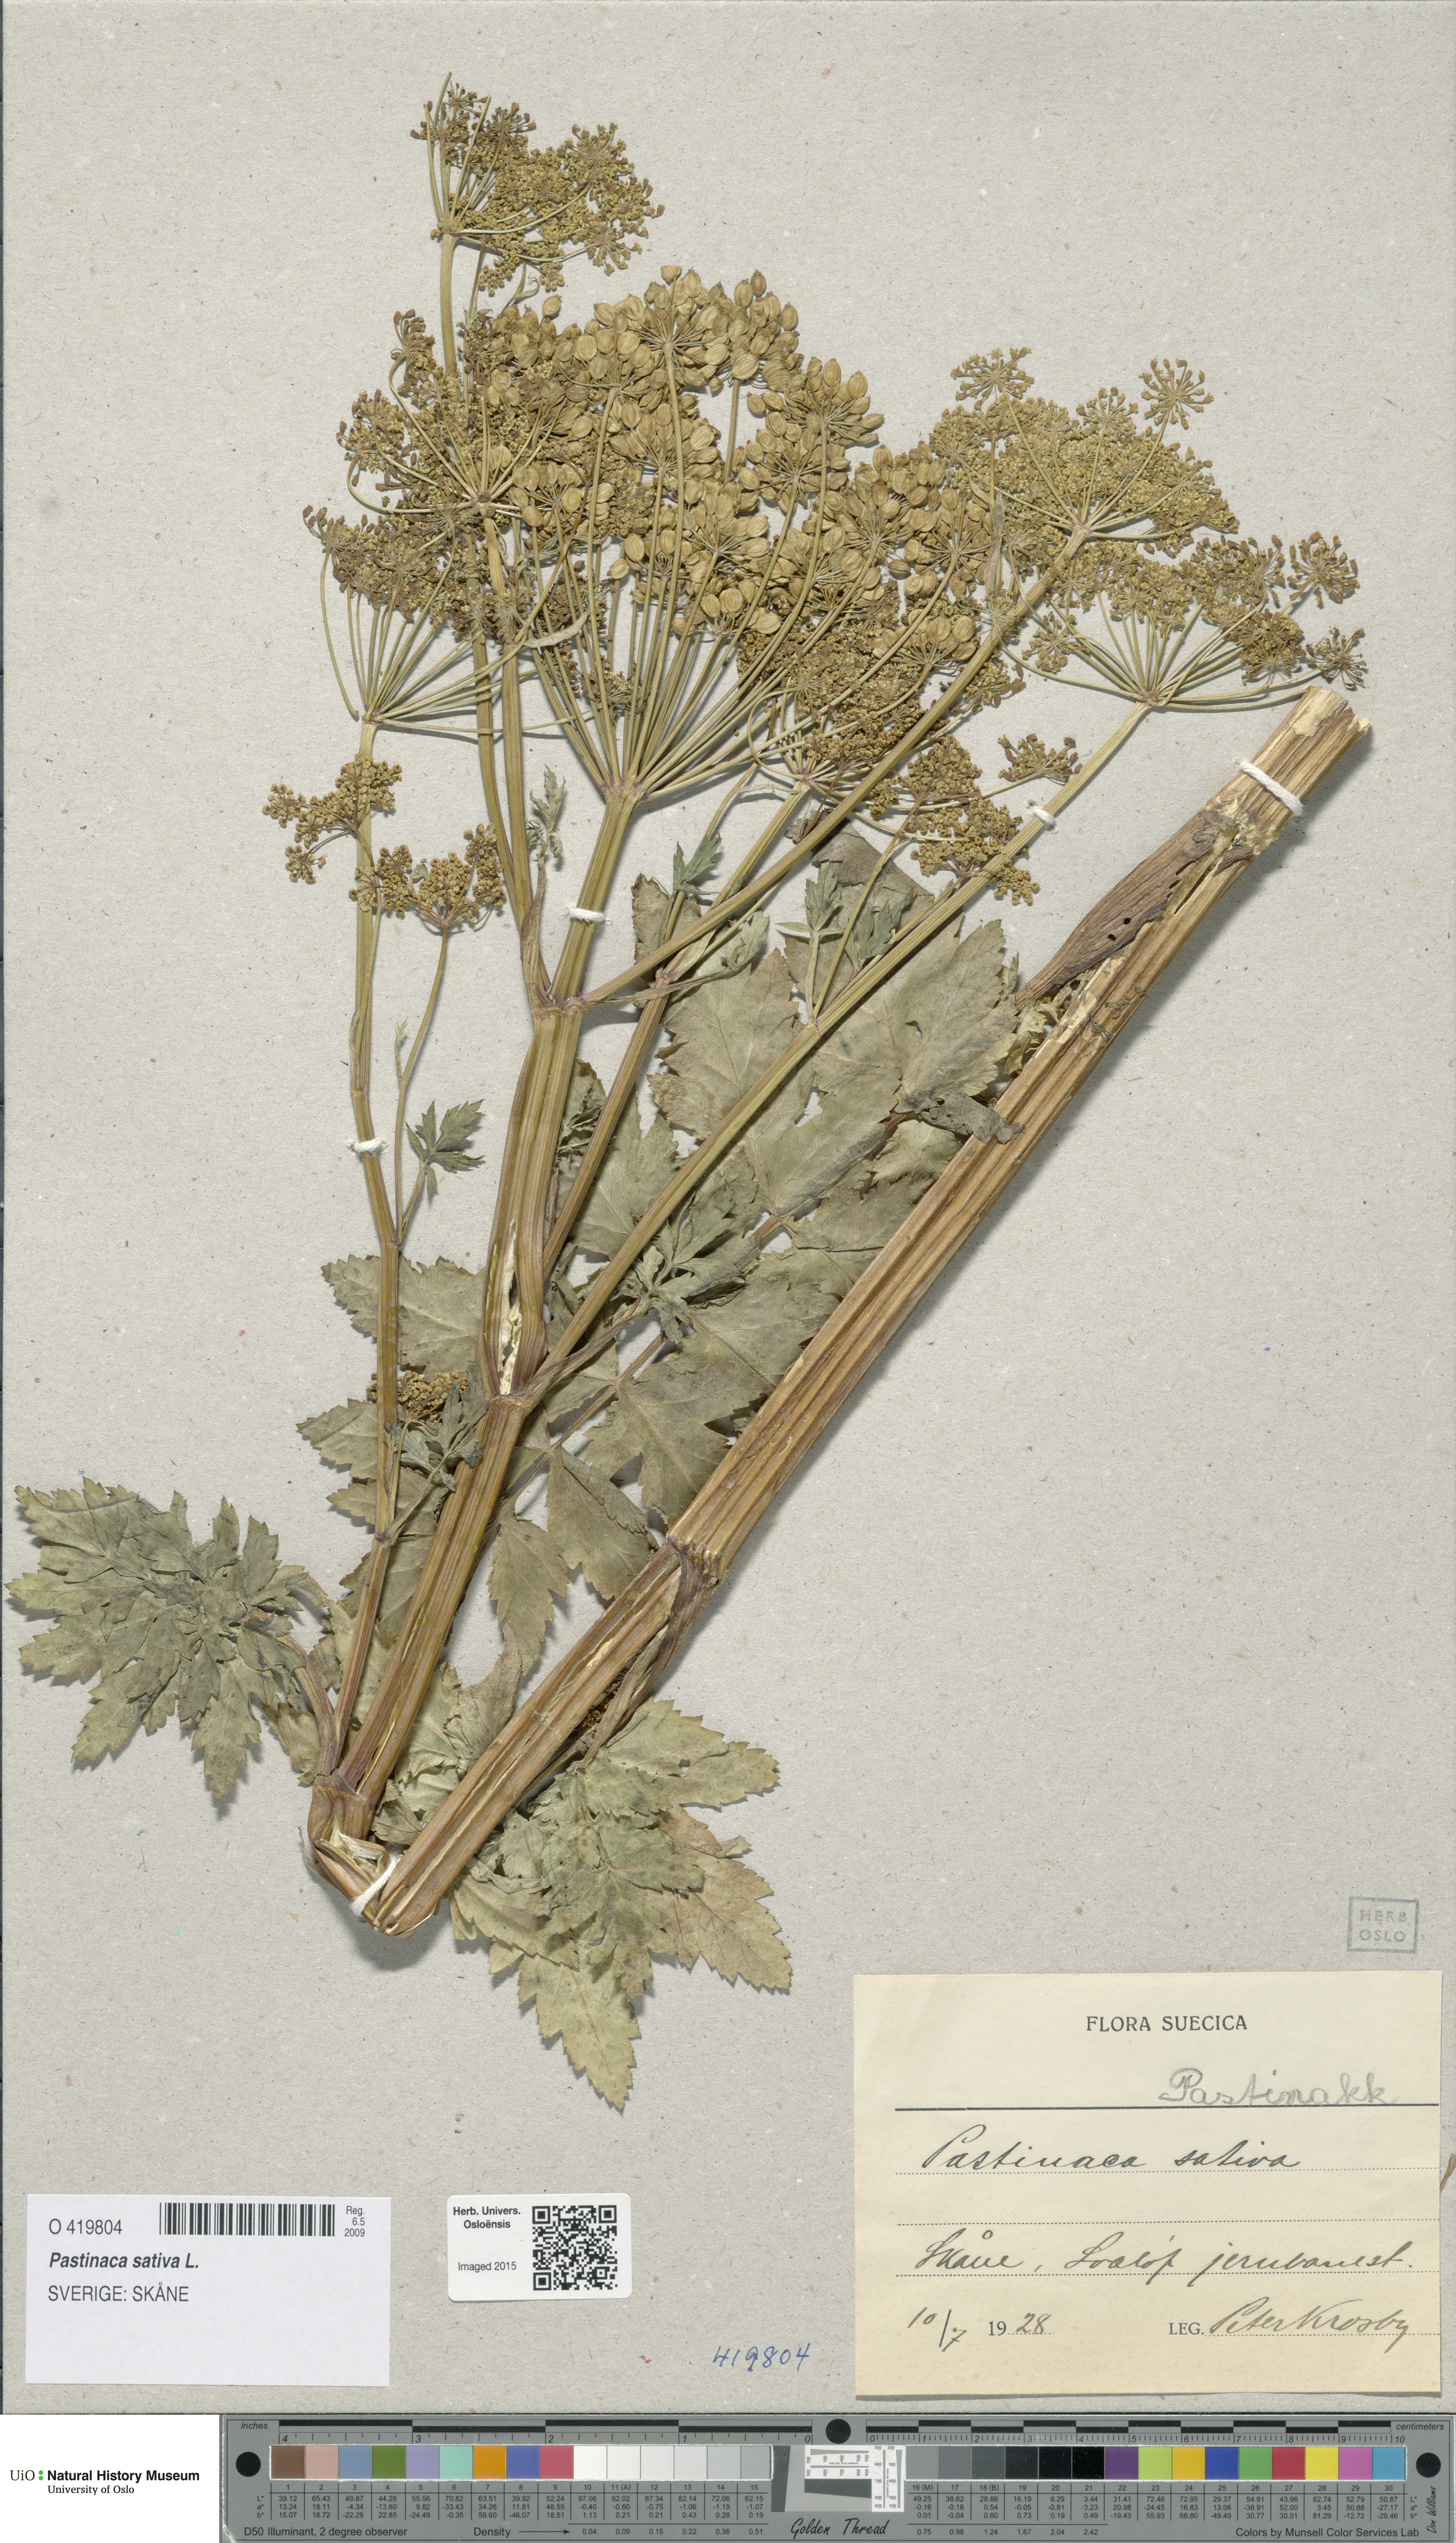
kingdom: Plantae
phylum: Tracheophyta
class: Magnoliopsida
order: Apiales
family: Apiaceae
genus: Pastinaca
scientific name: Pastinaca sativa
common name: Wild parsnip
